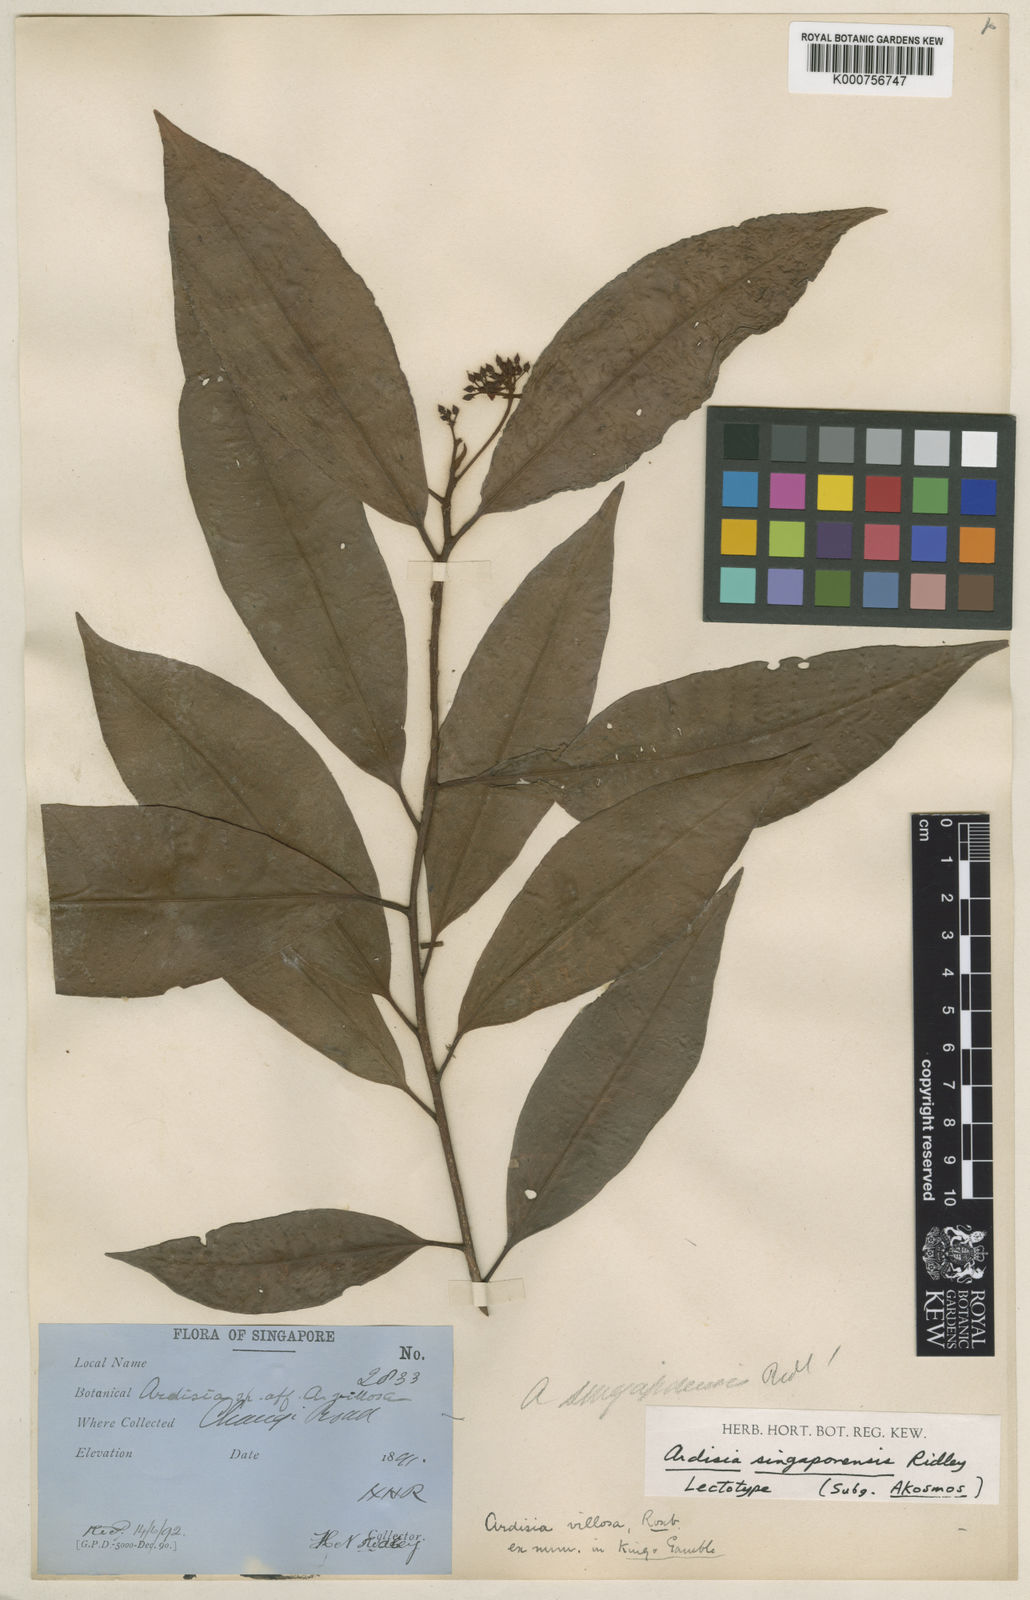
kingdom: Plantae
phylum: Tracheophyta
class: Magnoliopsida
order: Ericales
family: Primulaceae
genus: Ardisia
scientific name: Ardisia cymosa
